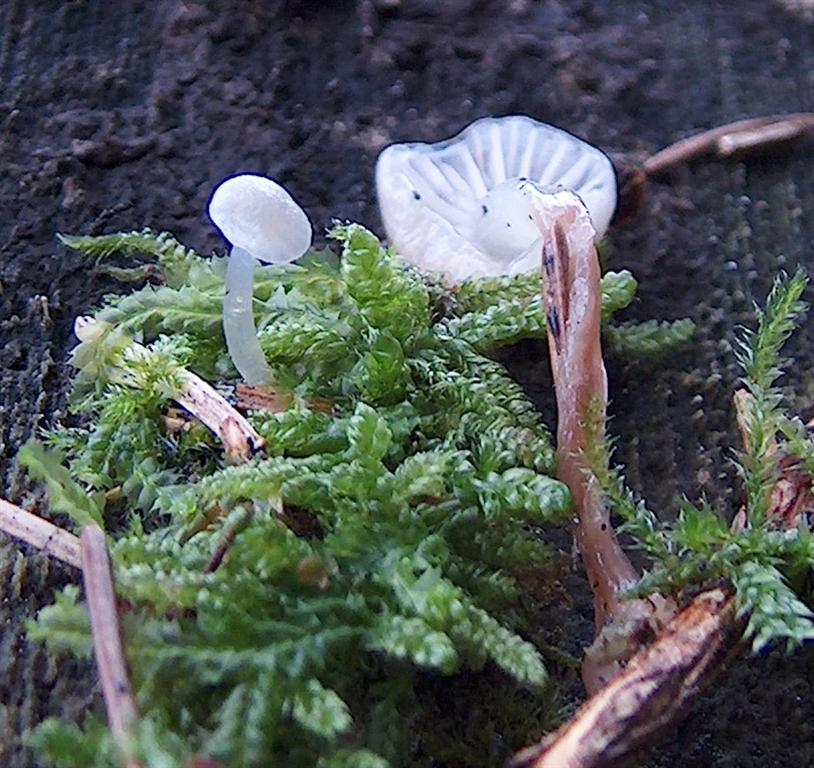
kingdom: Fungi
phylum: Basidiomycota
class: Agaricomycetes
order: Agaricales
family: Mycenaceae
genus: Mycena
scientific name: Mycena vulgaris
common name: klæbrig huesvamp
